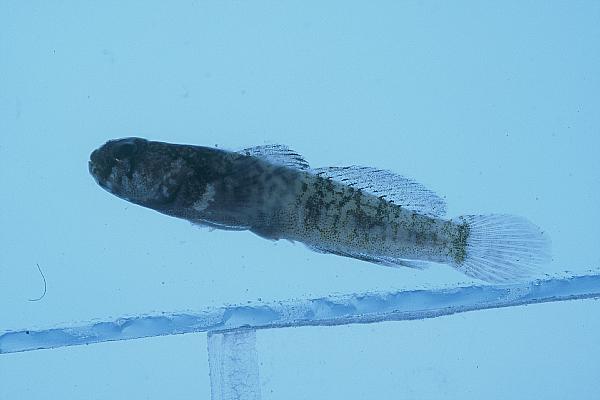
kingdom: Animalia
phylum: Chordata
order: Perciformes
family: Gobiidae
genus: Hetereleotris
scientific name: Hetereleotris georgegilli
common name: Gill's goby
